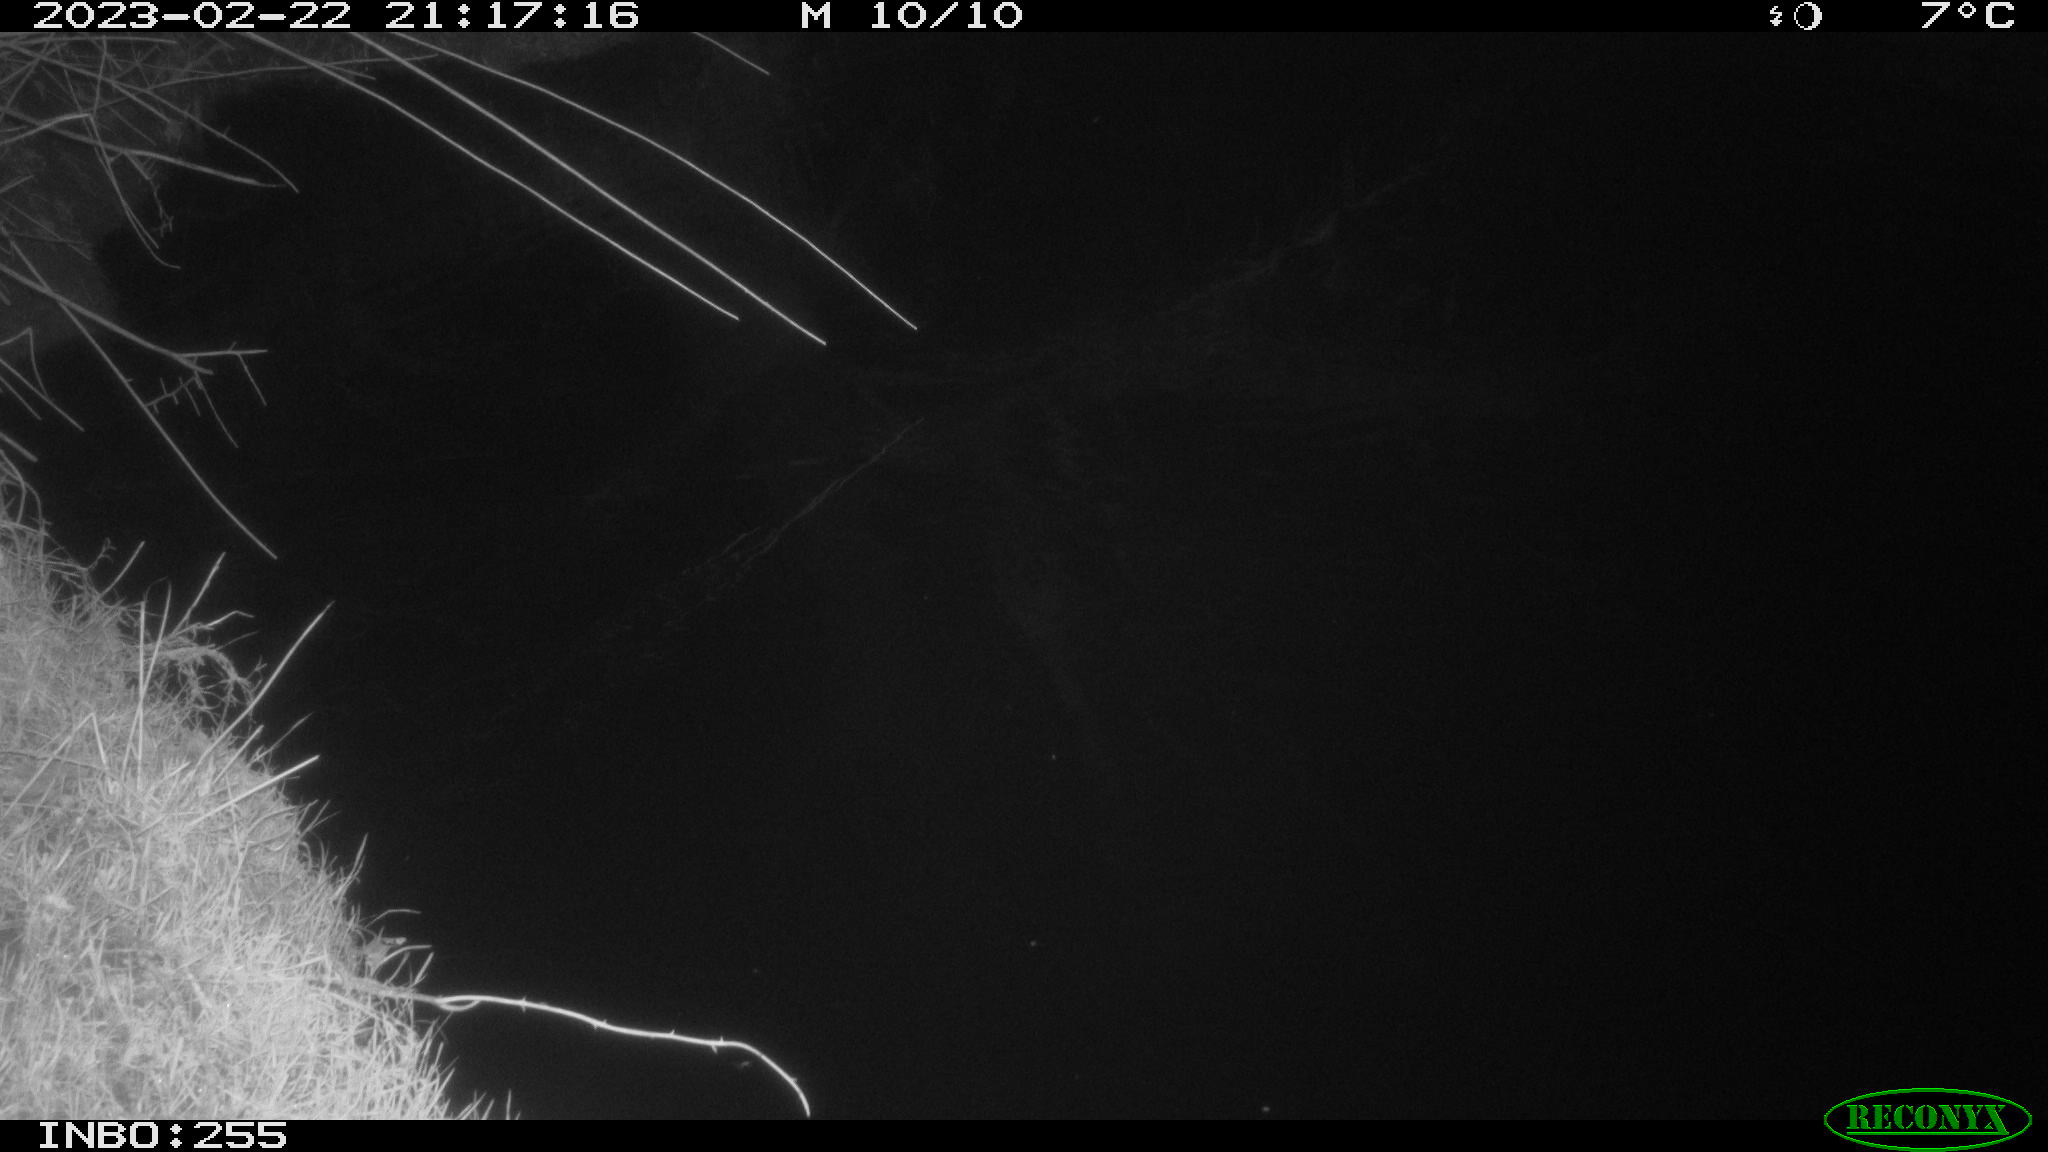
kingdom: Animalia
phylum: Chordata
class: Aves
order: Anseriformes
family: Anatidae
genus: Anas
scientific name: Anas
